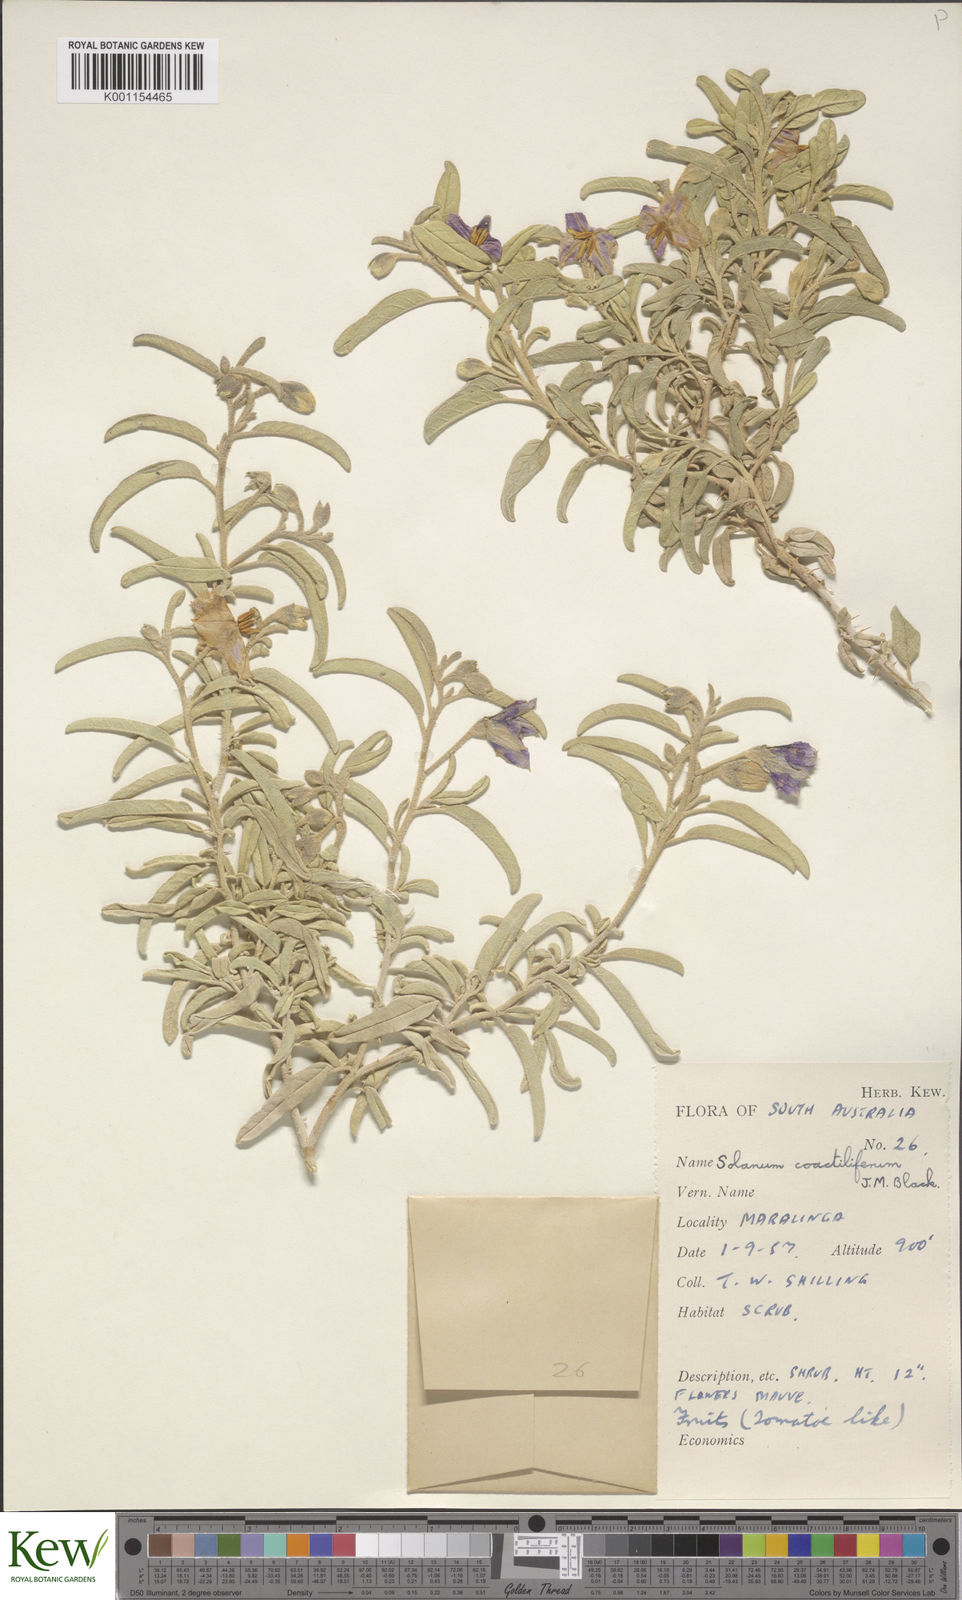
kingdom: Plantae
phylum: Tracheophyta
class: Magnoliopsida
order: Solanales
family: Solanaceae
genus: Solanum
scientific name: Solanum coactiliferum
